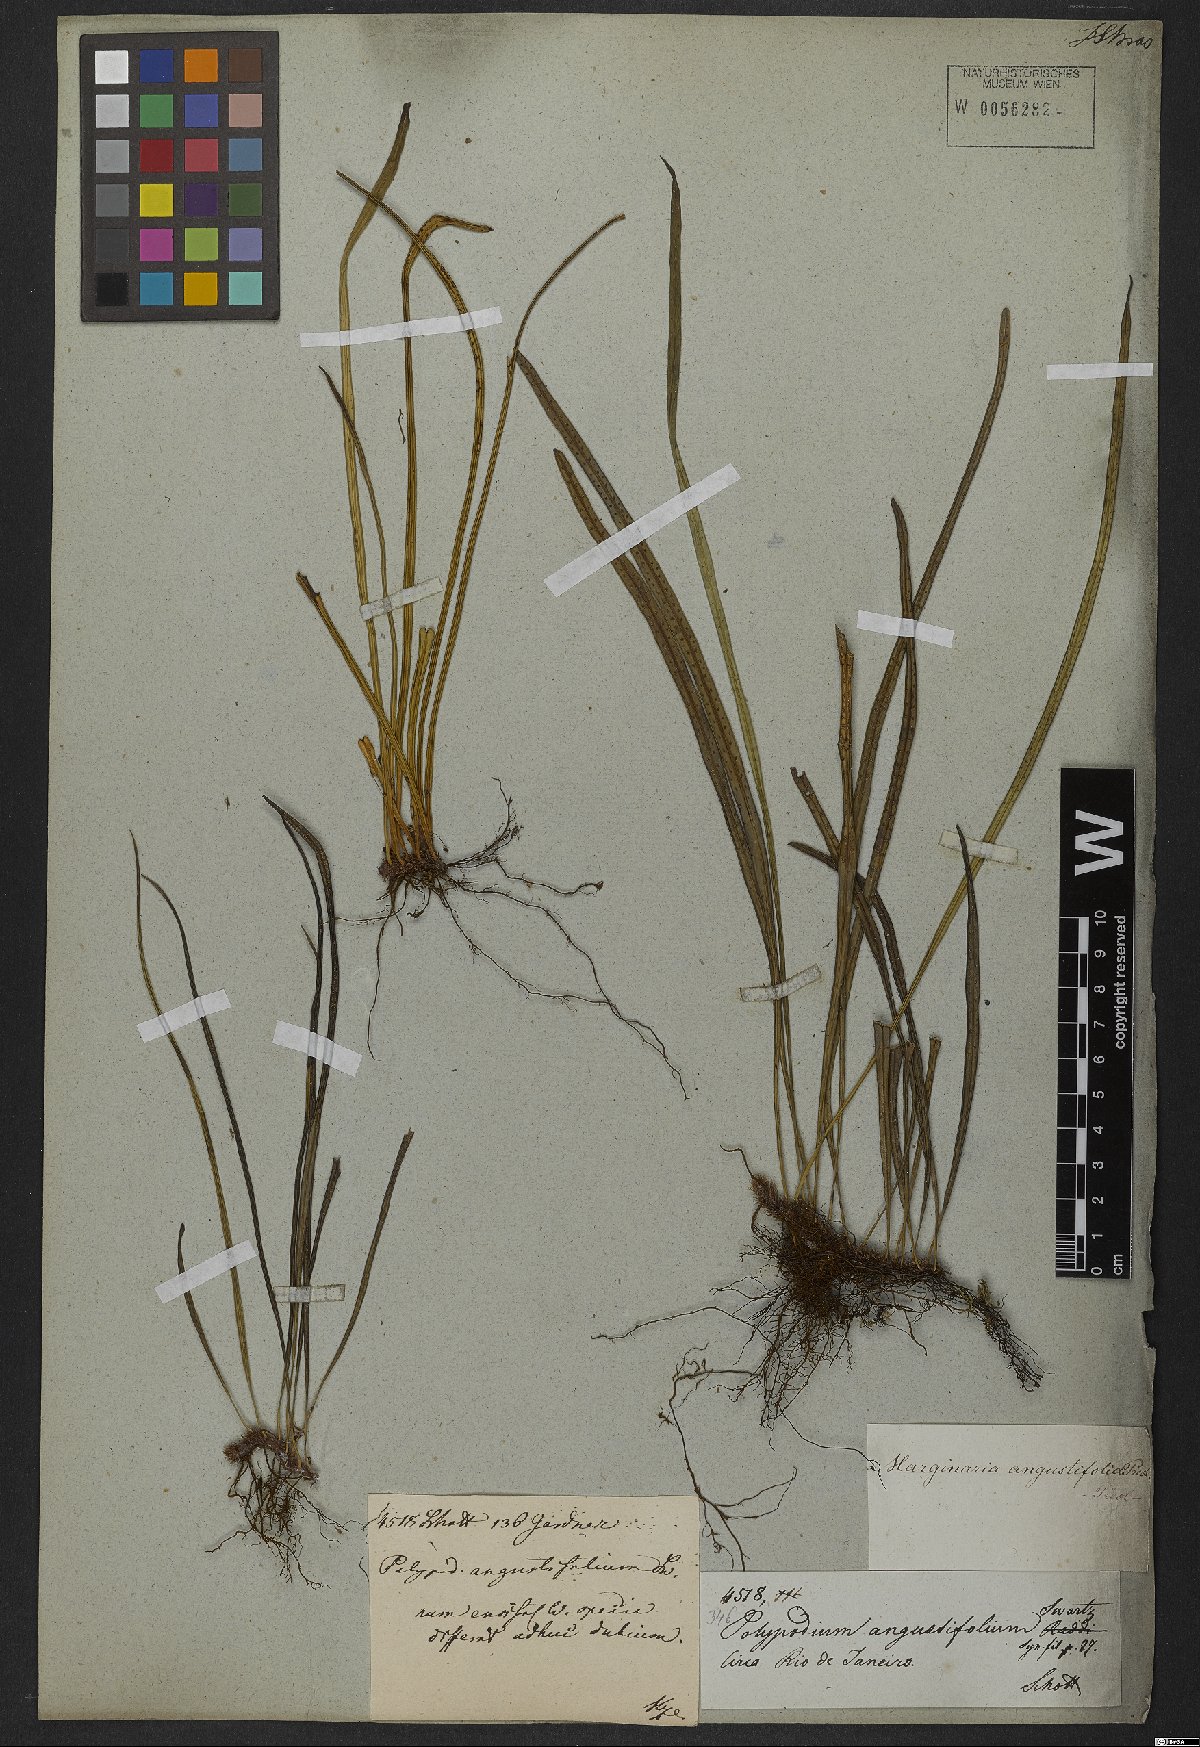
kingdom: Plantae
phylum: Tracheophyta
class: Polypodiopsida
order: Polypodiales
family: Polypodiaceae
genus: Campyloneurum
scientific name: Campyloneurum angustifolium
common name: Narrow-leaf strap fern
